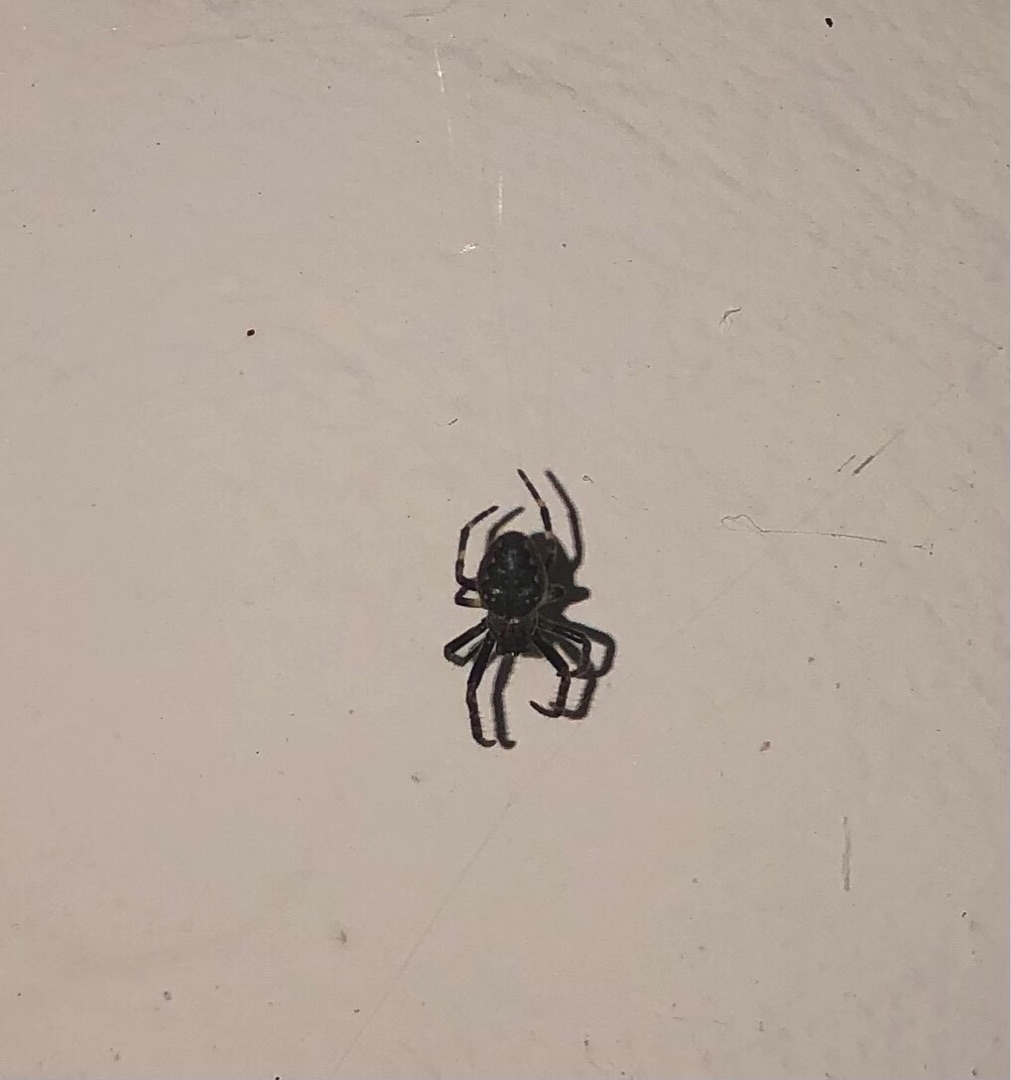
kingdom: Animalia
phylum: Arthropoda
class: Arachnida
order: Araneae
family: Araneidae
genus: Nuctenea
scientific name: Nuctenea umbratica
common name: Flad hjulspinder
